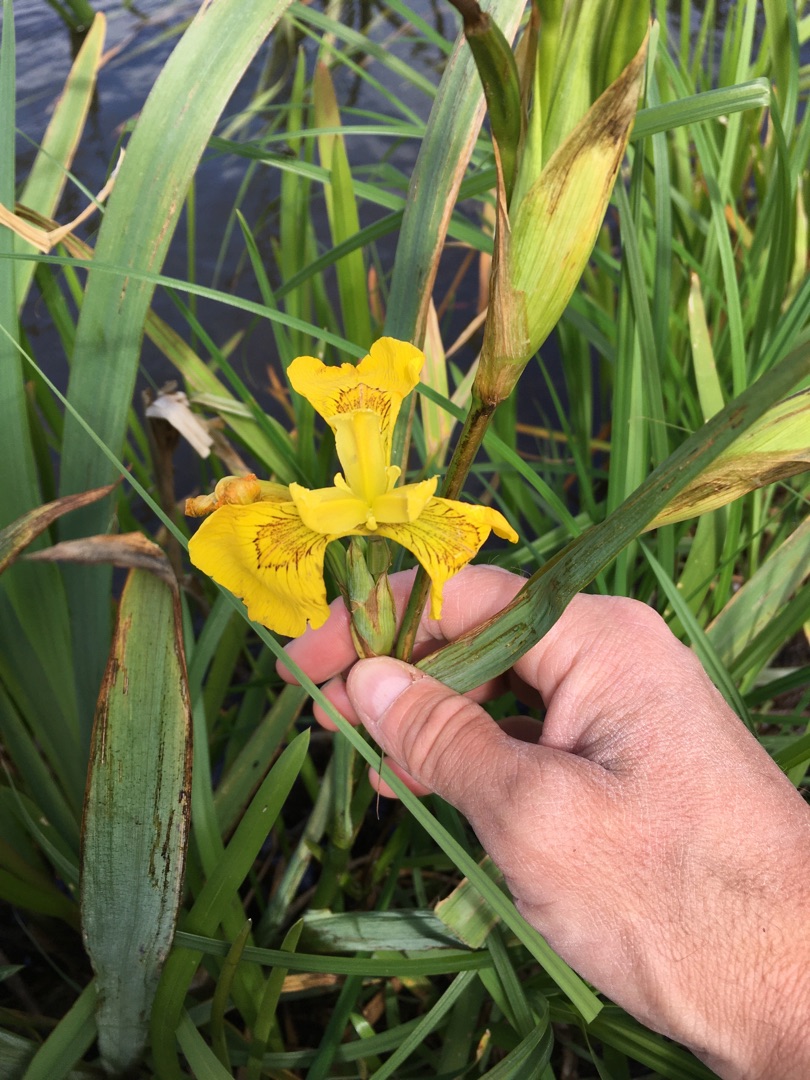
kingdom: Plantae
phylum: Tracheophyta
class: Liliopsida
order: Asparagales
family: Iridaceae
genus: Iris
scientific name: Iris pseudacorus
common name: Gul iris
